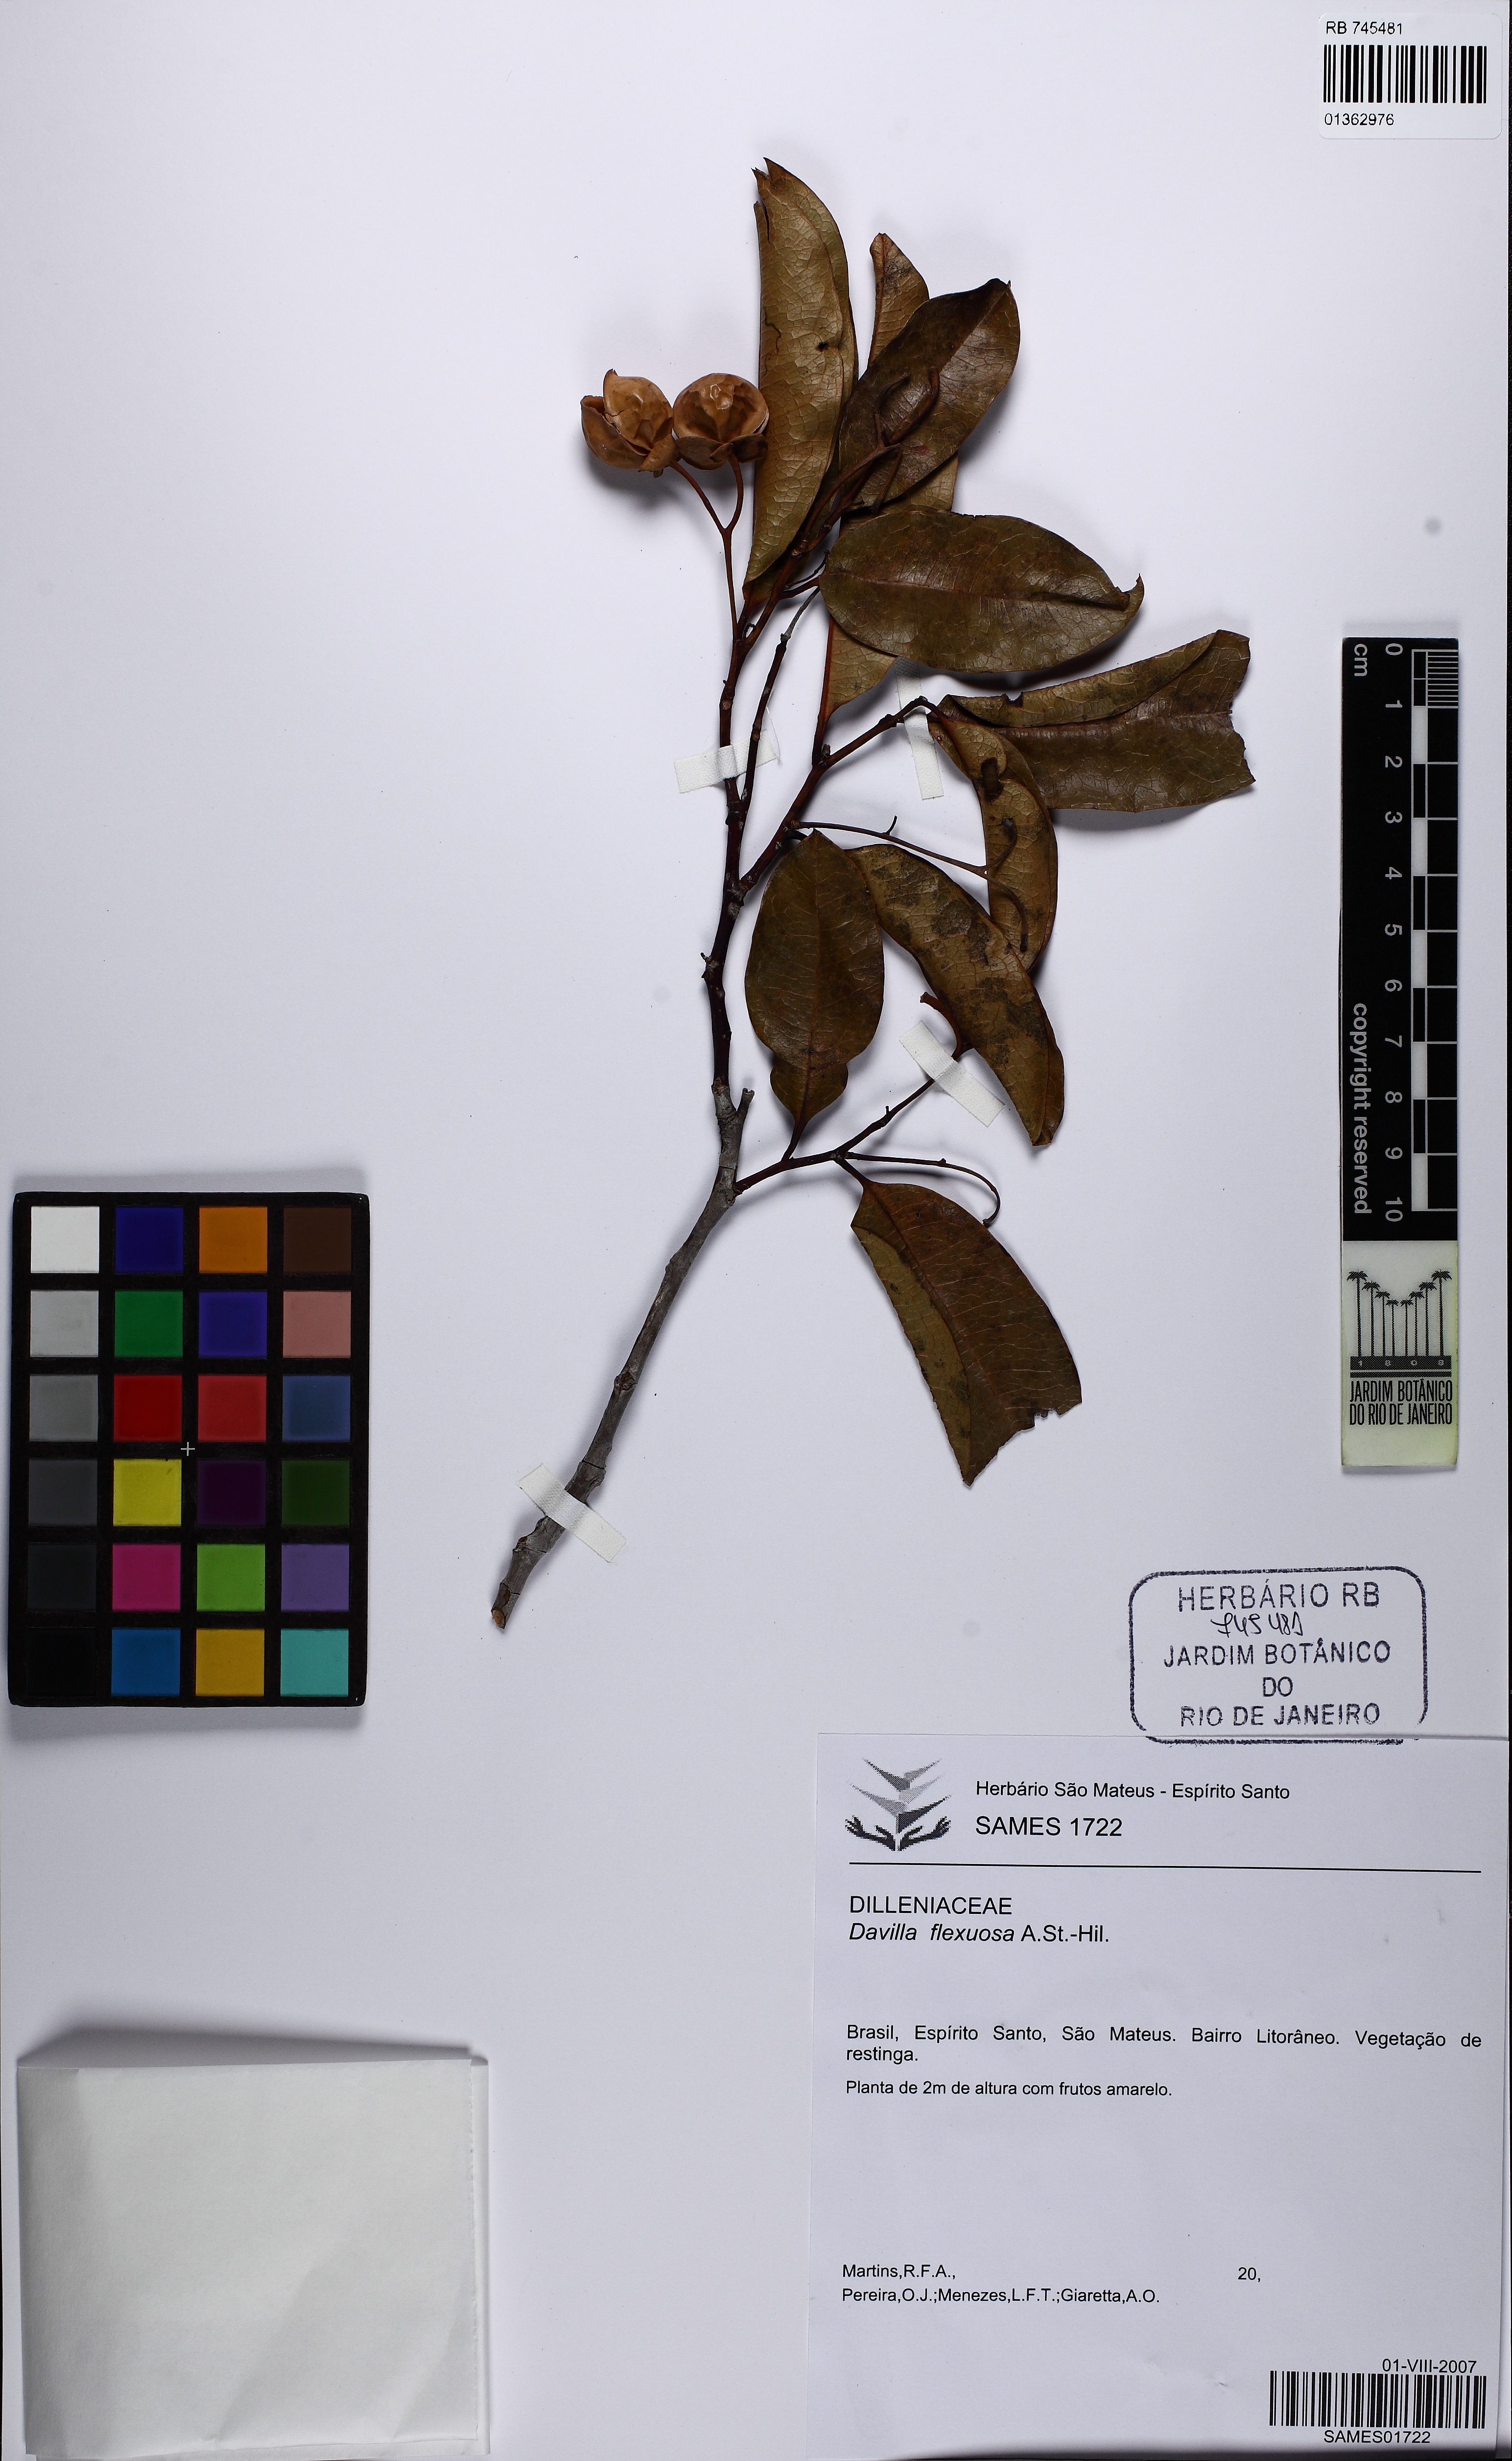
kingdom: Plantae
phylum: Tracheophyta
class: Magnoliopsida
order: Dilleniales
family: Dilleniaceae
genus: Davilla
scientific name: Davilla flexuosa
